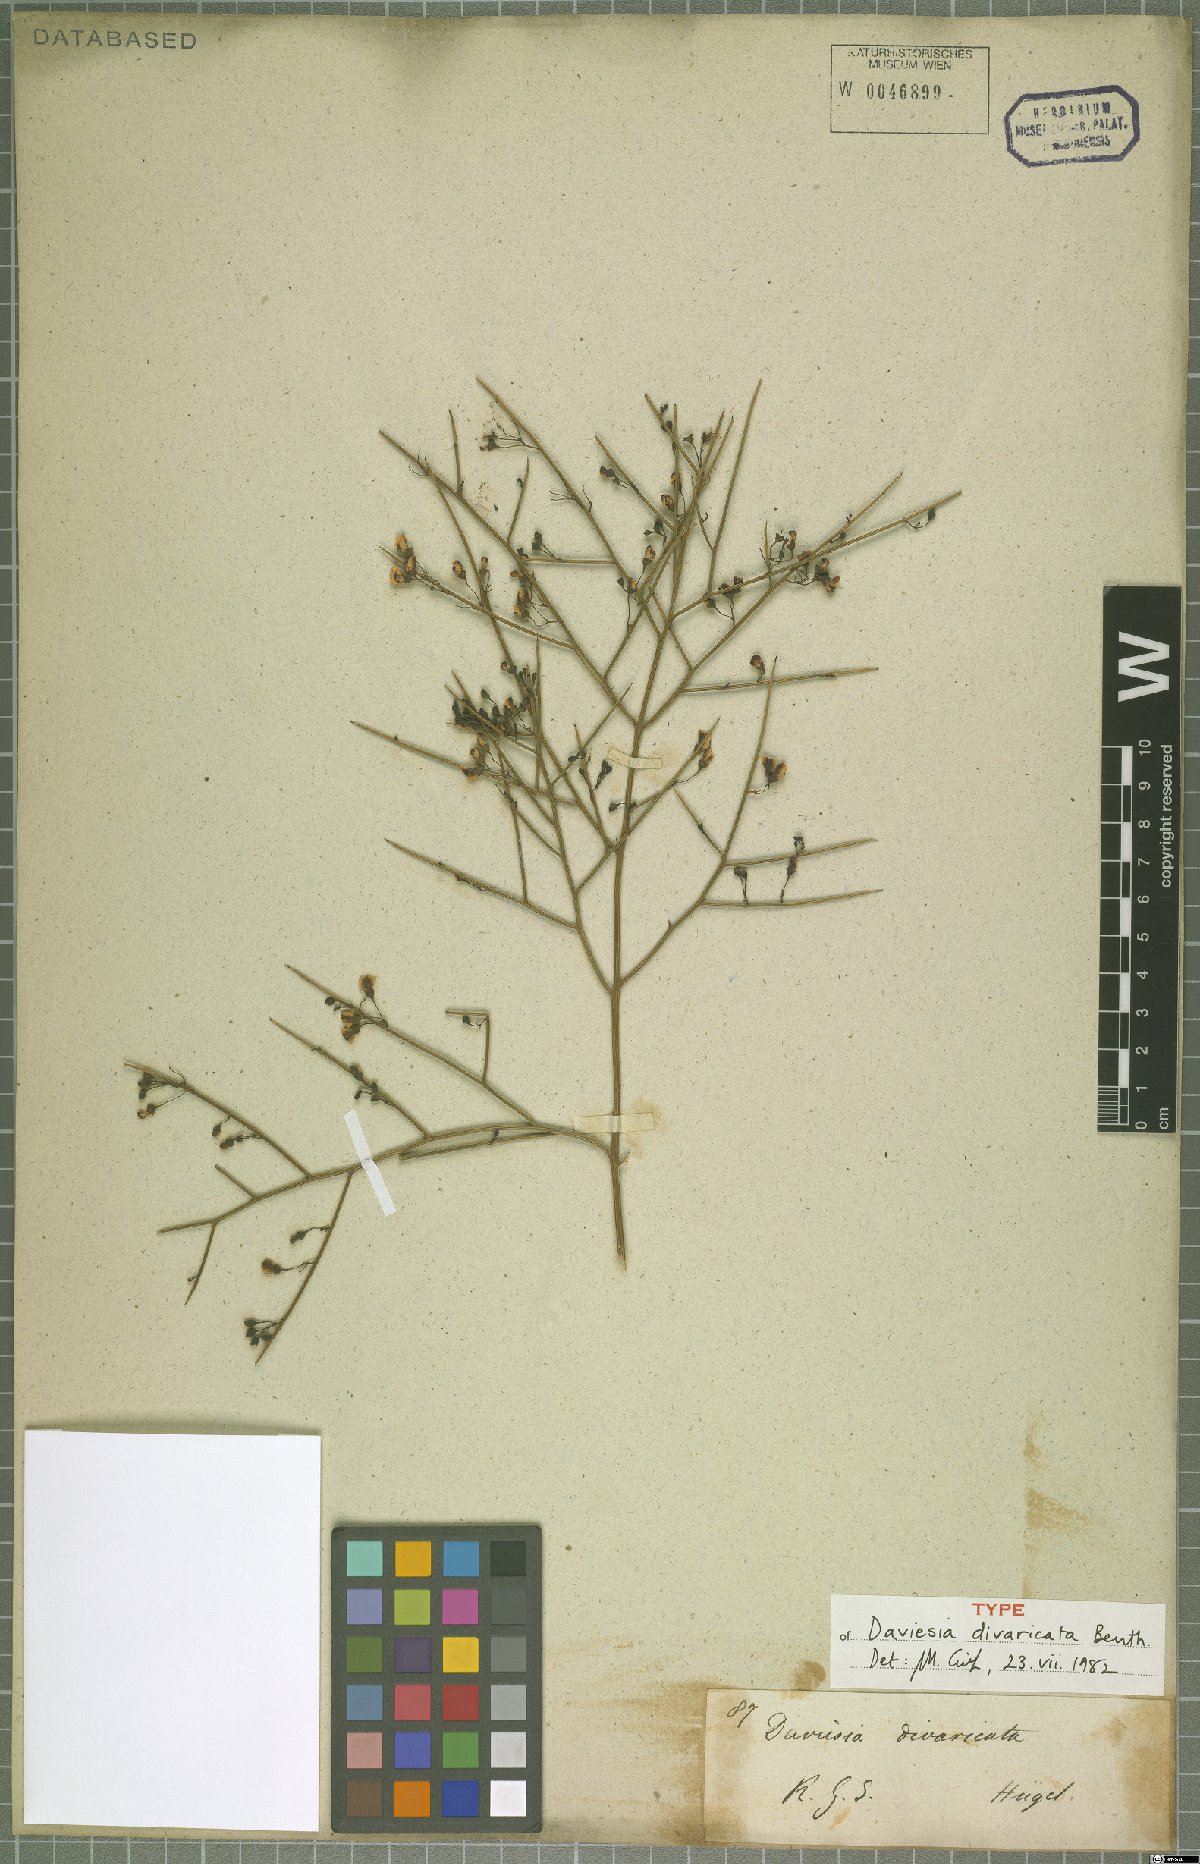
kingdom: Plantae
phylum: Tracheophyta
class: Magnoliopsida
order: Fabales
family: Fabaceae
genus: Daviesia
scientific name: Daviesia divaricata
